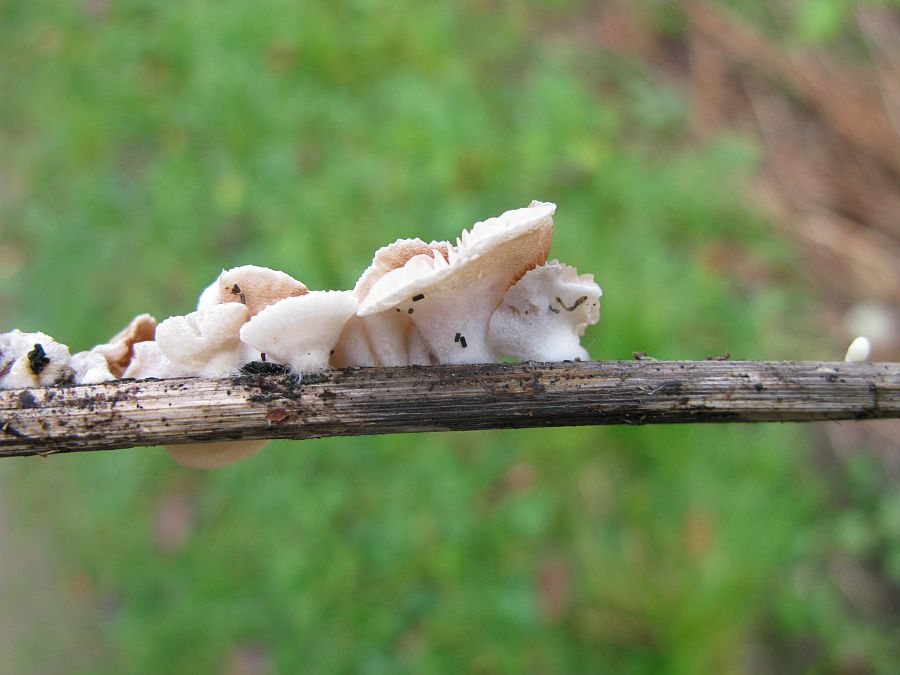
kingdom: Fungi
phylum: Basidiomycota
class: Agaricomycetes
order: Agaricales
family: Crepidotaceae
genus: Crepidotus
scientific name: Crepidotus luteolus
